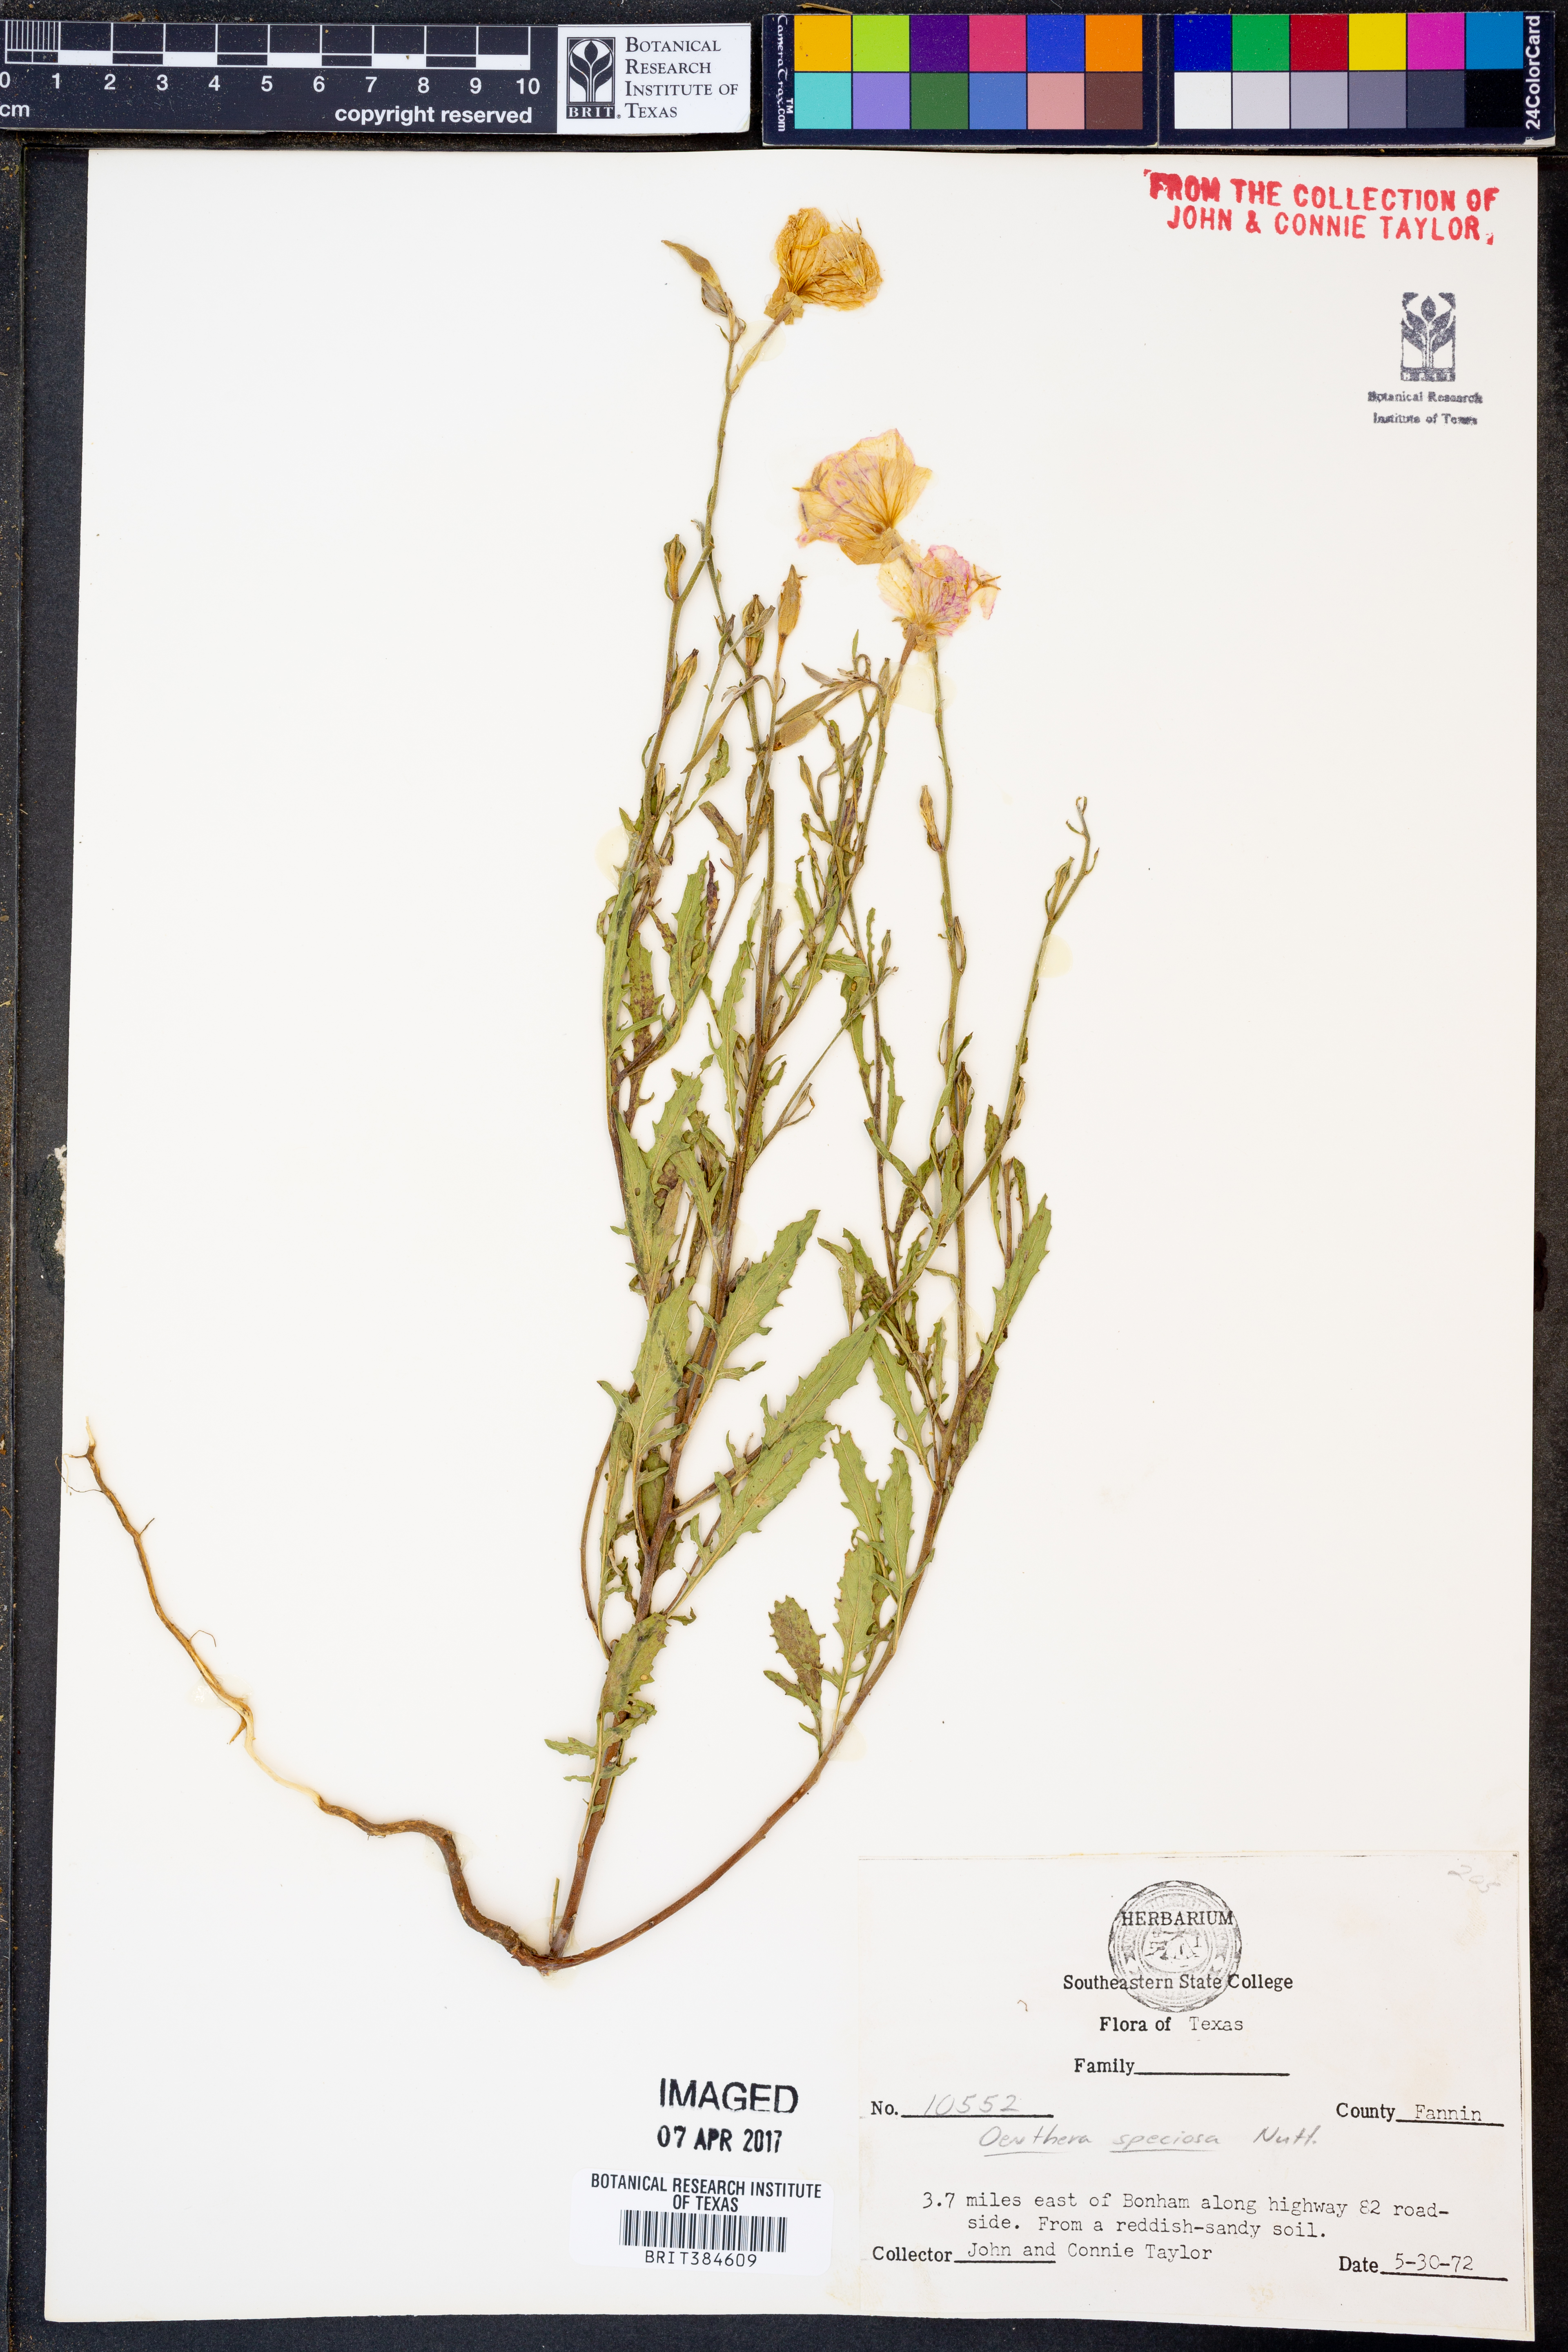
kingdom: Plantae
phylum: Tracheophyta
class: Magnoliopsida
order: Myrtales
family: Onagraceae
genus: Oenothera
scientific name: Oenothera speciosa
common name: White evening-primrose
